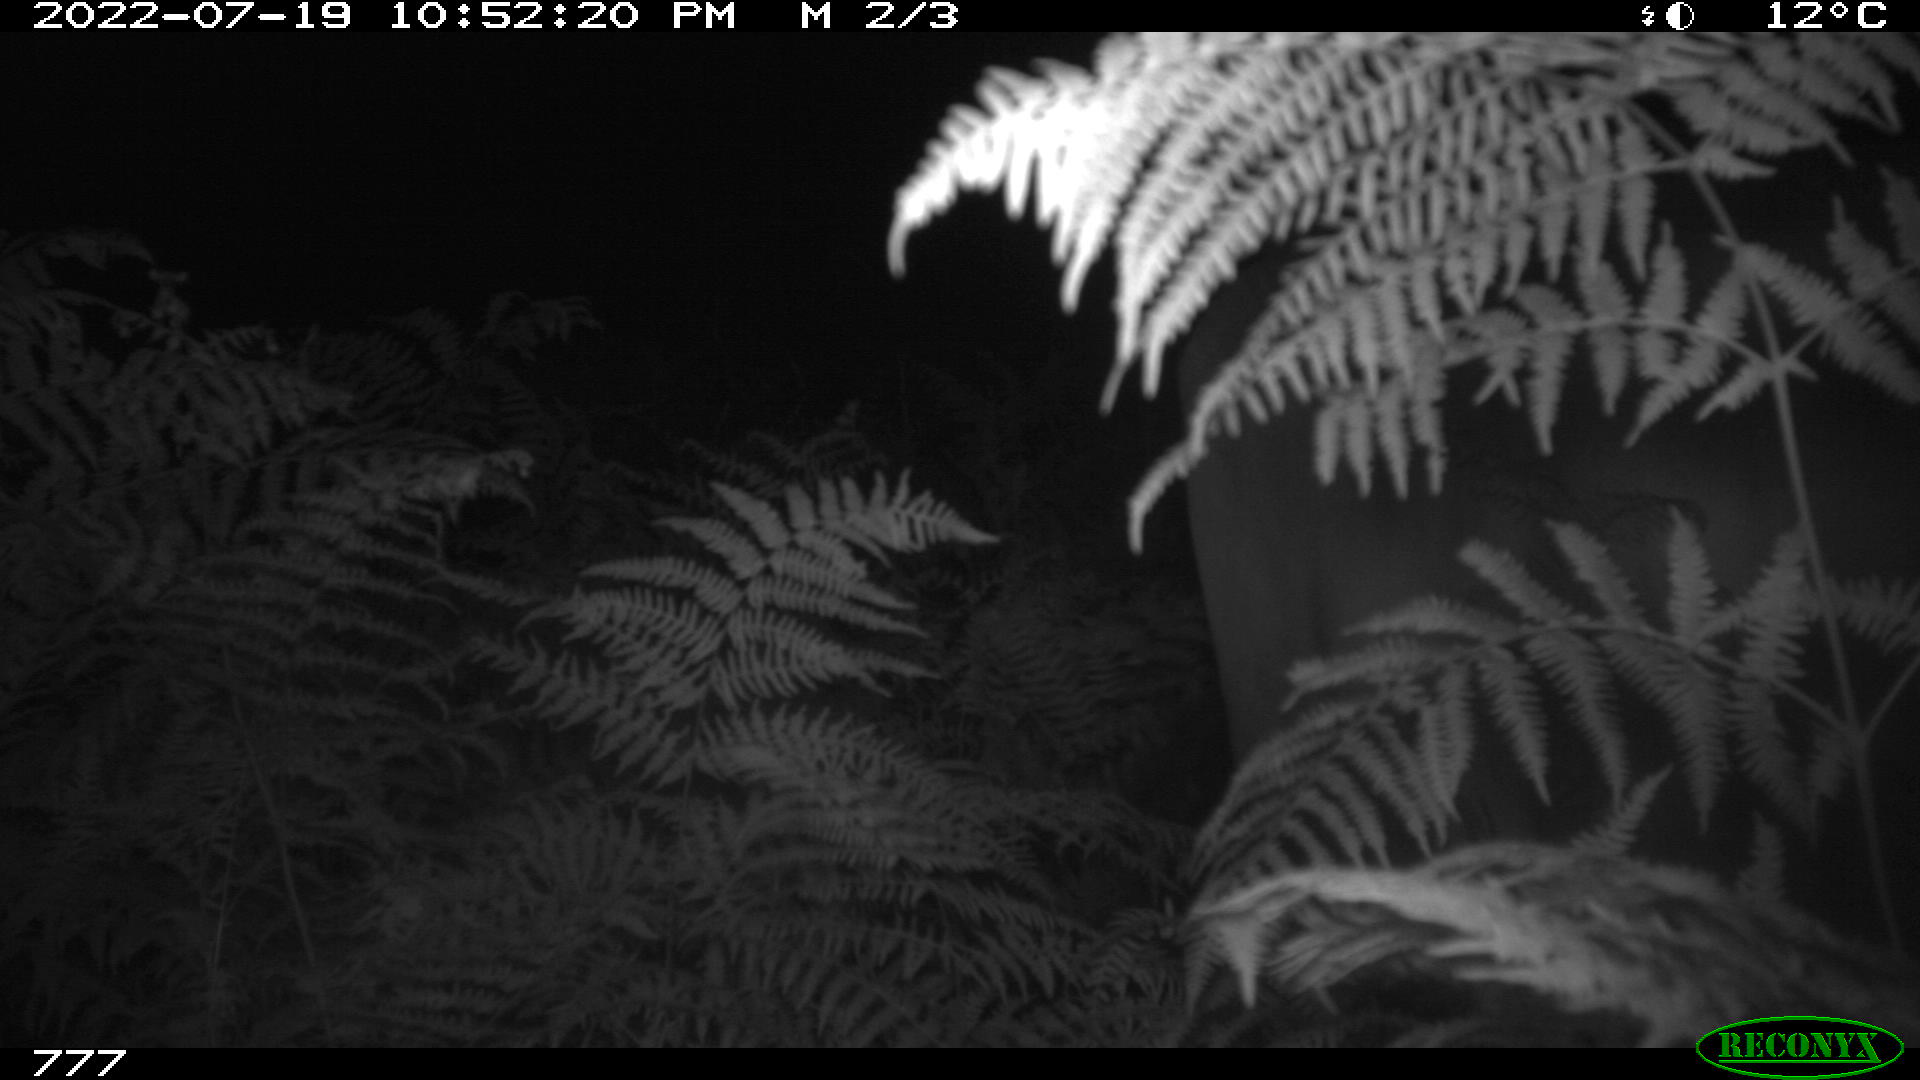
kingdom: Animalia
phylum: Chordata
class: Mammalia
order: Artiodactyla
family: Bovidae
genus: Bos
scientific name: Bos taurus
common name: Domesticated cattle
